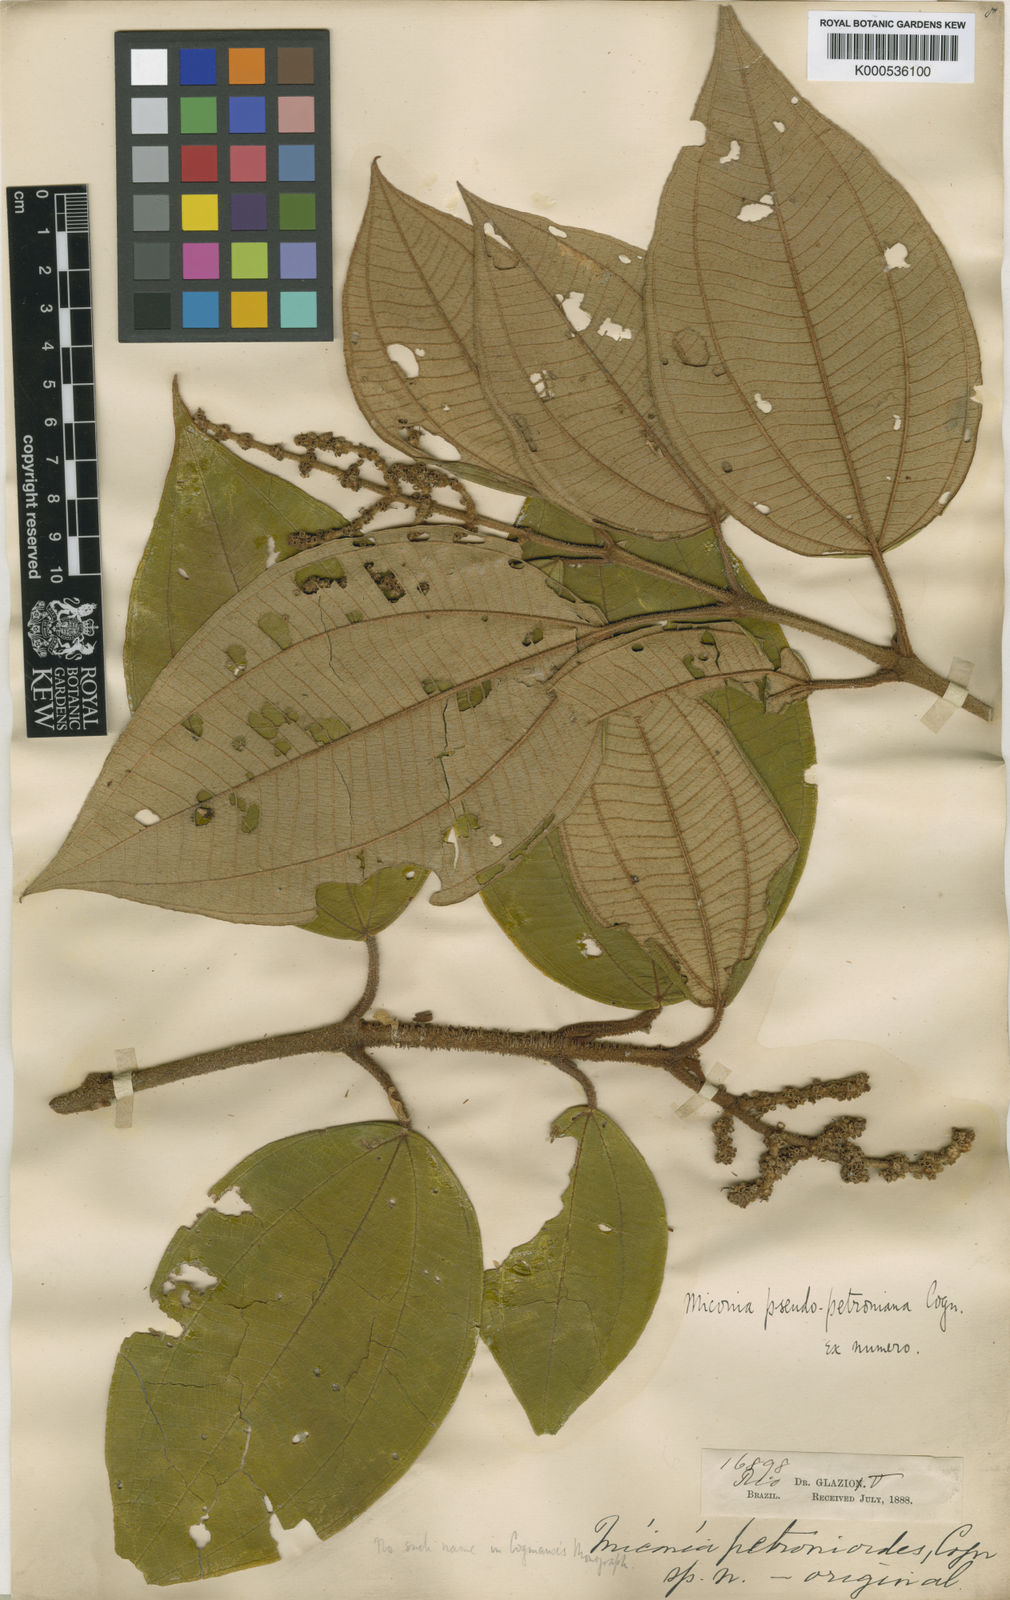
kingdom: Plantae
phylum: Tracheophyta
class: Magnoliopsida
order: Myrtales
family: Melastomataceae
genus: Miconia
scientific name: Miconia petroniana
